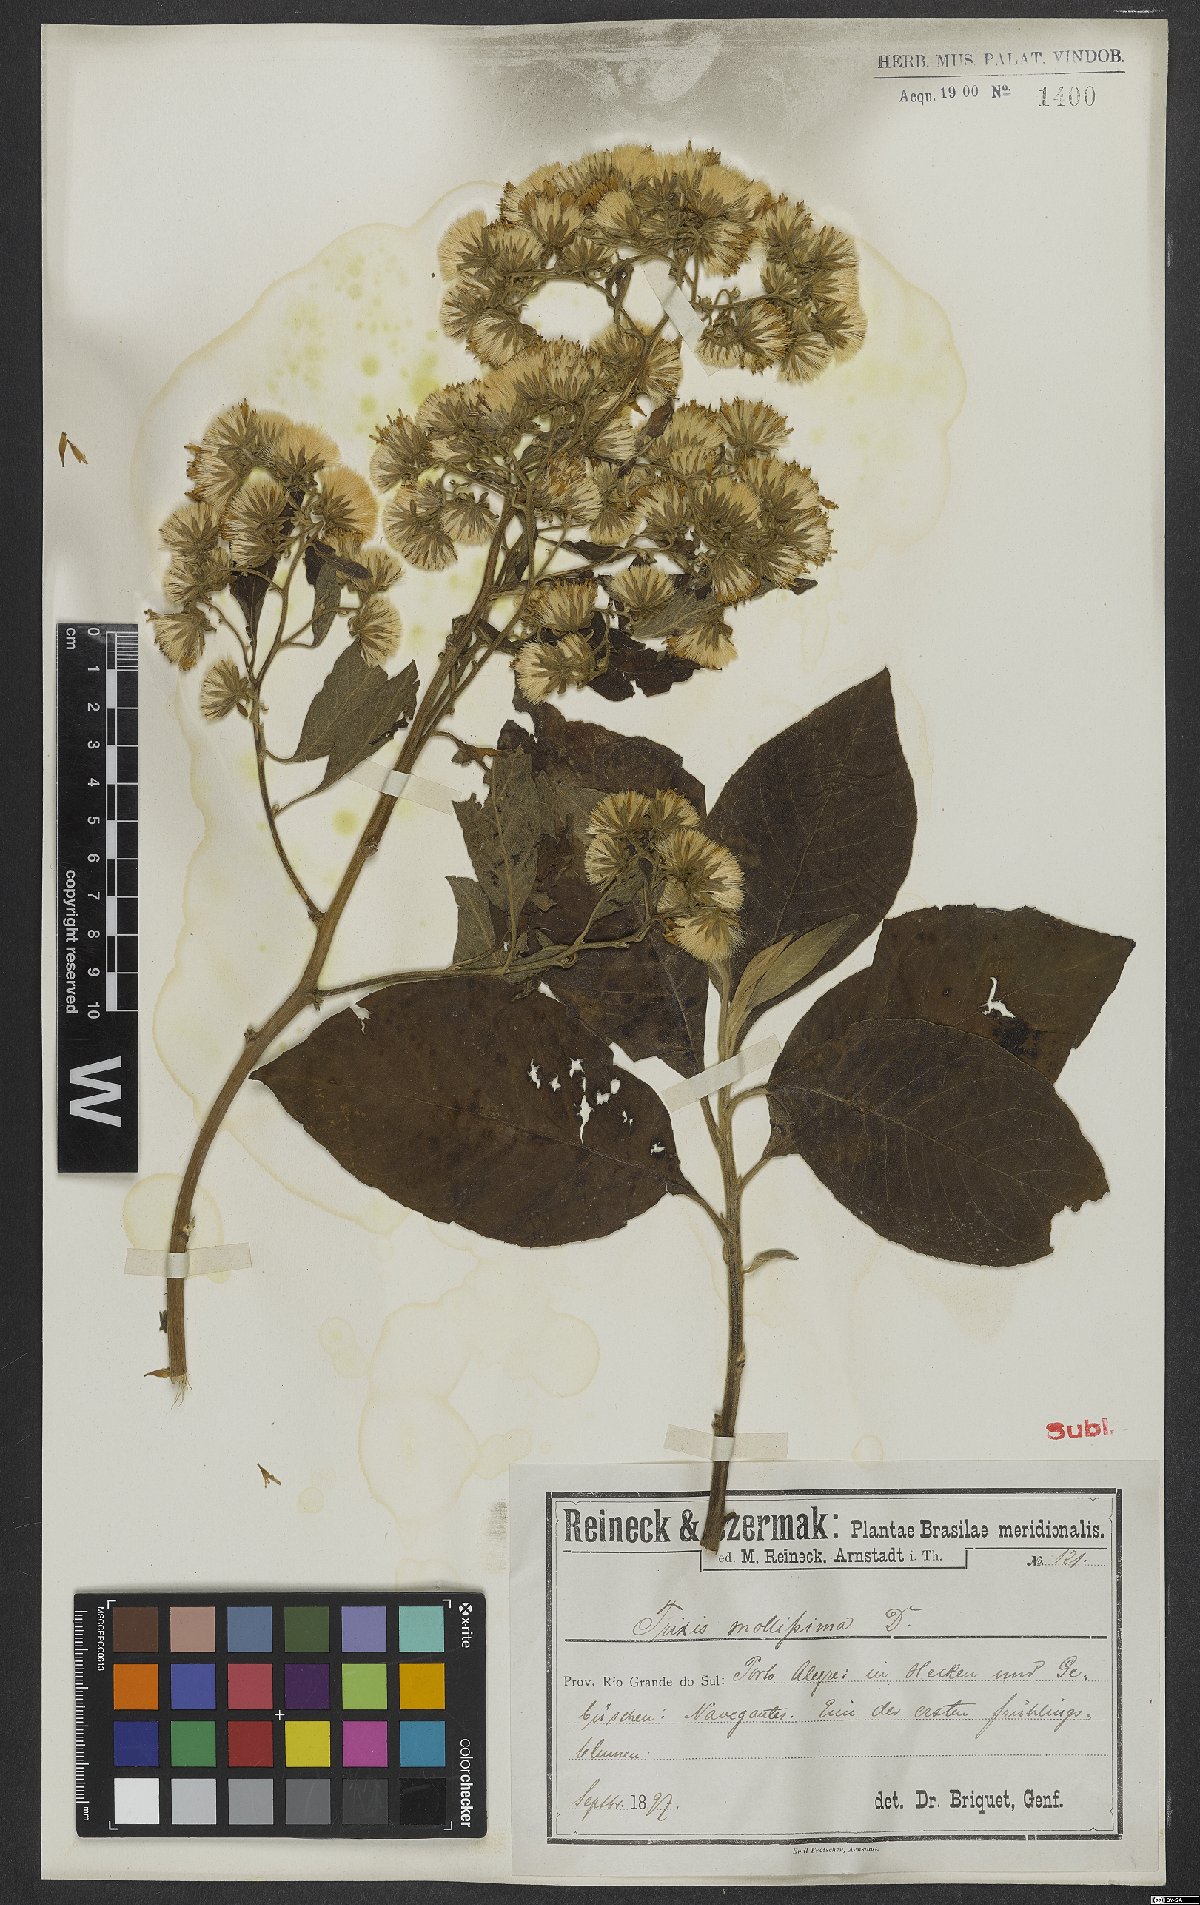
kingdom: Plantae
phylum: Tracheophyta
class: Magnoliopsida
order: Asterales
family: Asteraceae
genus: Trixis
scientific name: Trixis praestans
